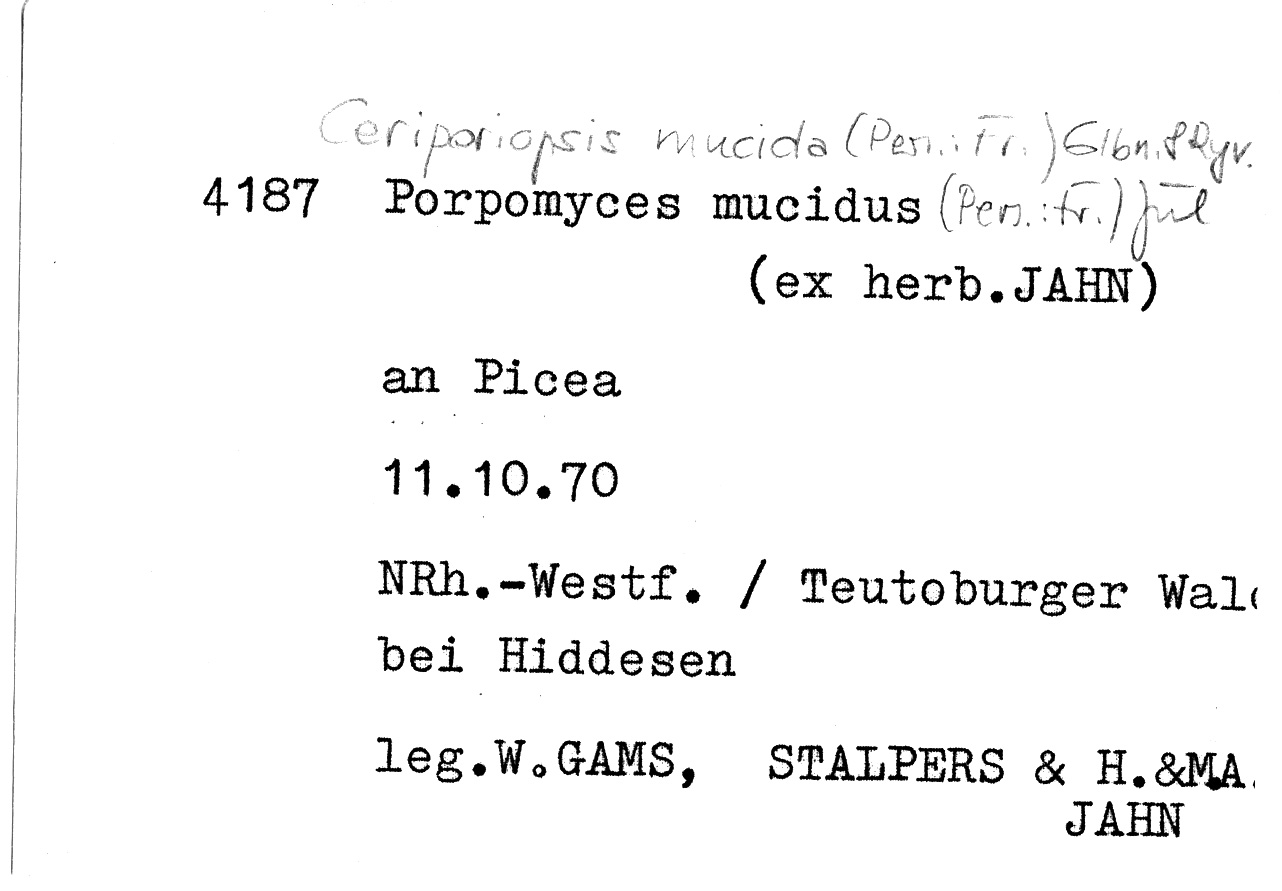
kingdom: Fungi
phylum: Basidiomycota
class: Agaricomycetes
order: Polyporales
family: Meruliaceae
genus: Ceriporiopsis
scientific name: Ceriporiopsis mucida
